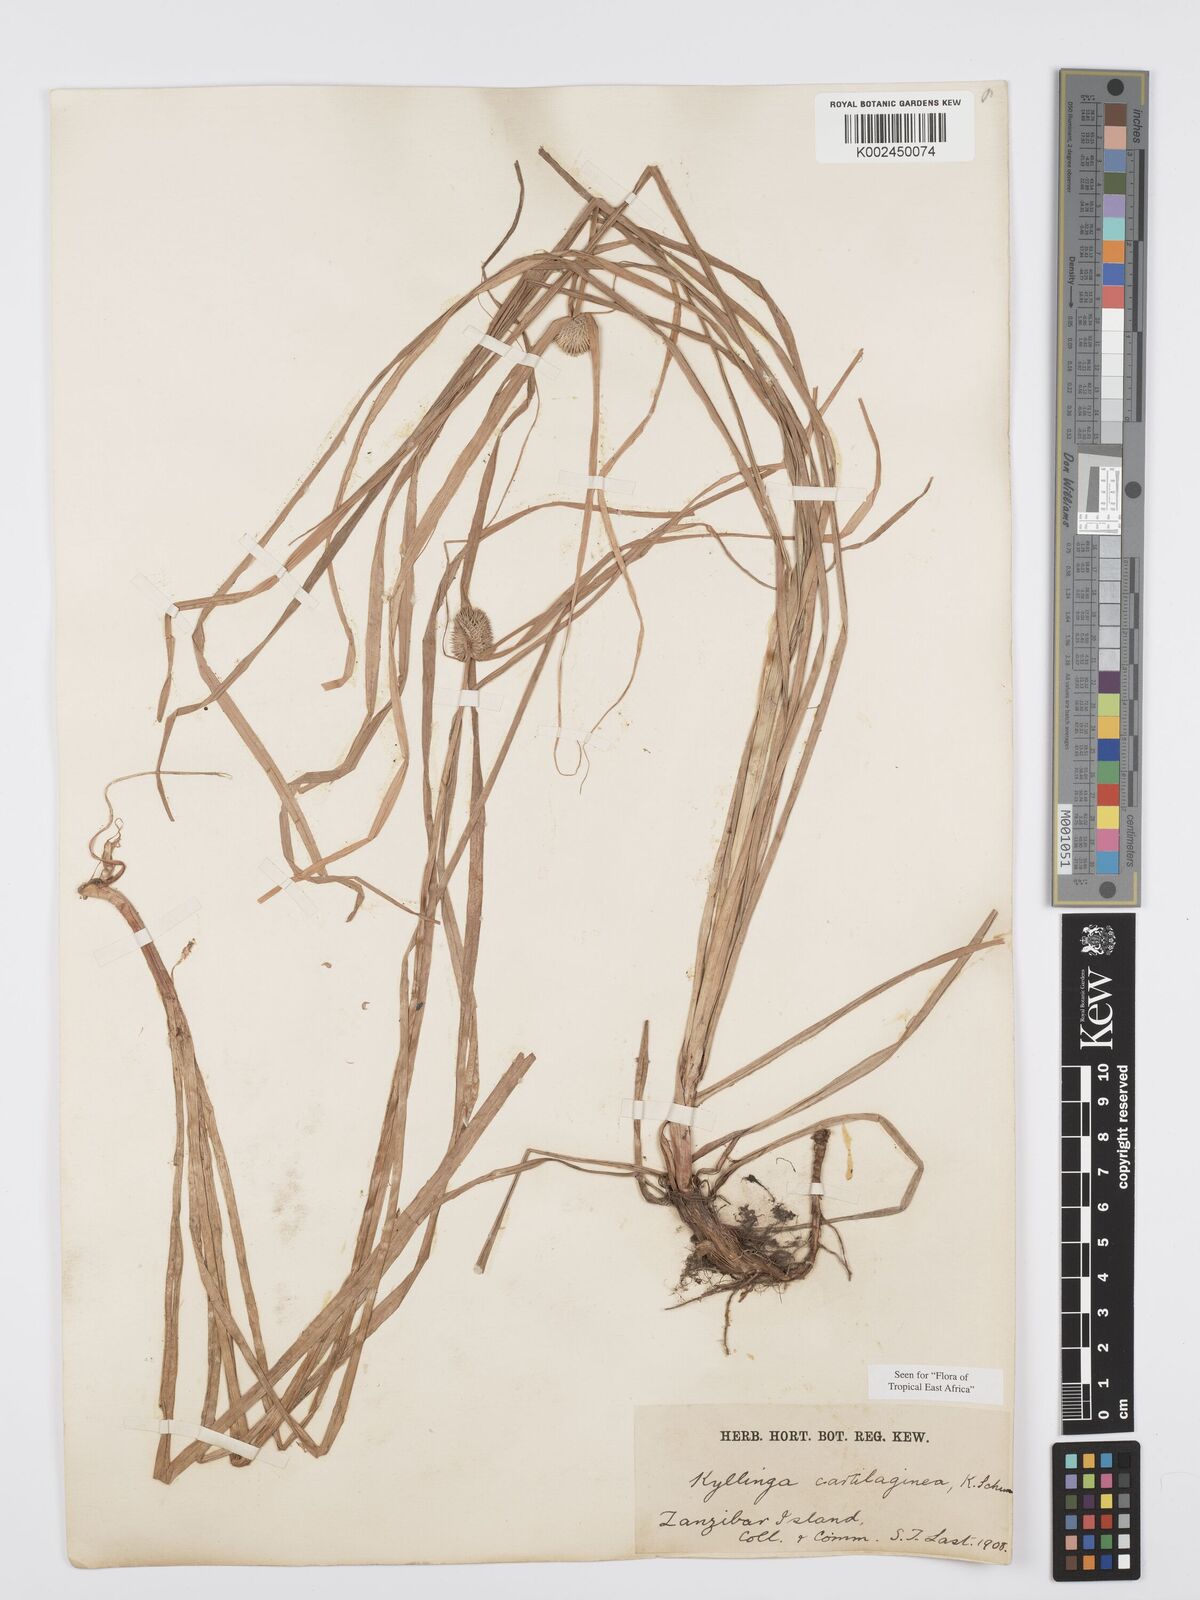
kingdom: Plantae
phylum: Tracheophyta
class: Liliopsida
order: Poales
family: Cyperaceae
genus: Cyperus
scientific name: Cyperus cartilagineus
